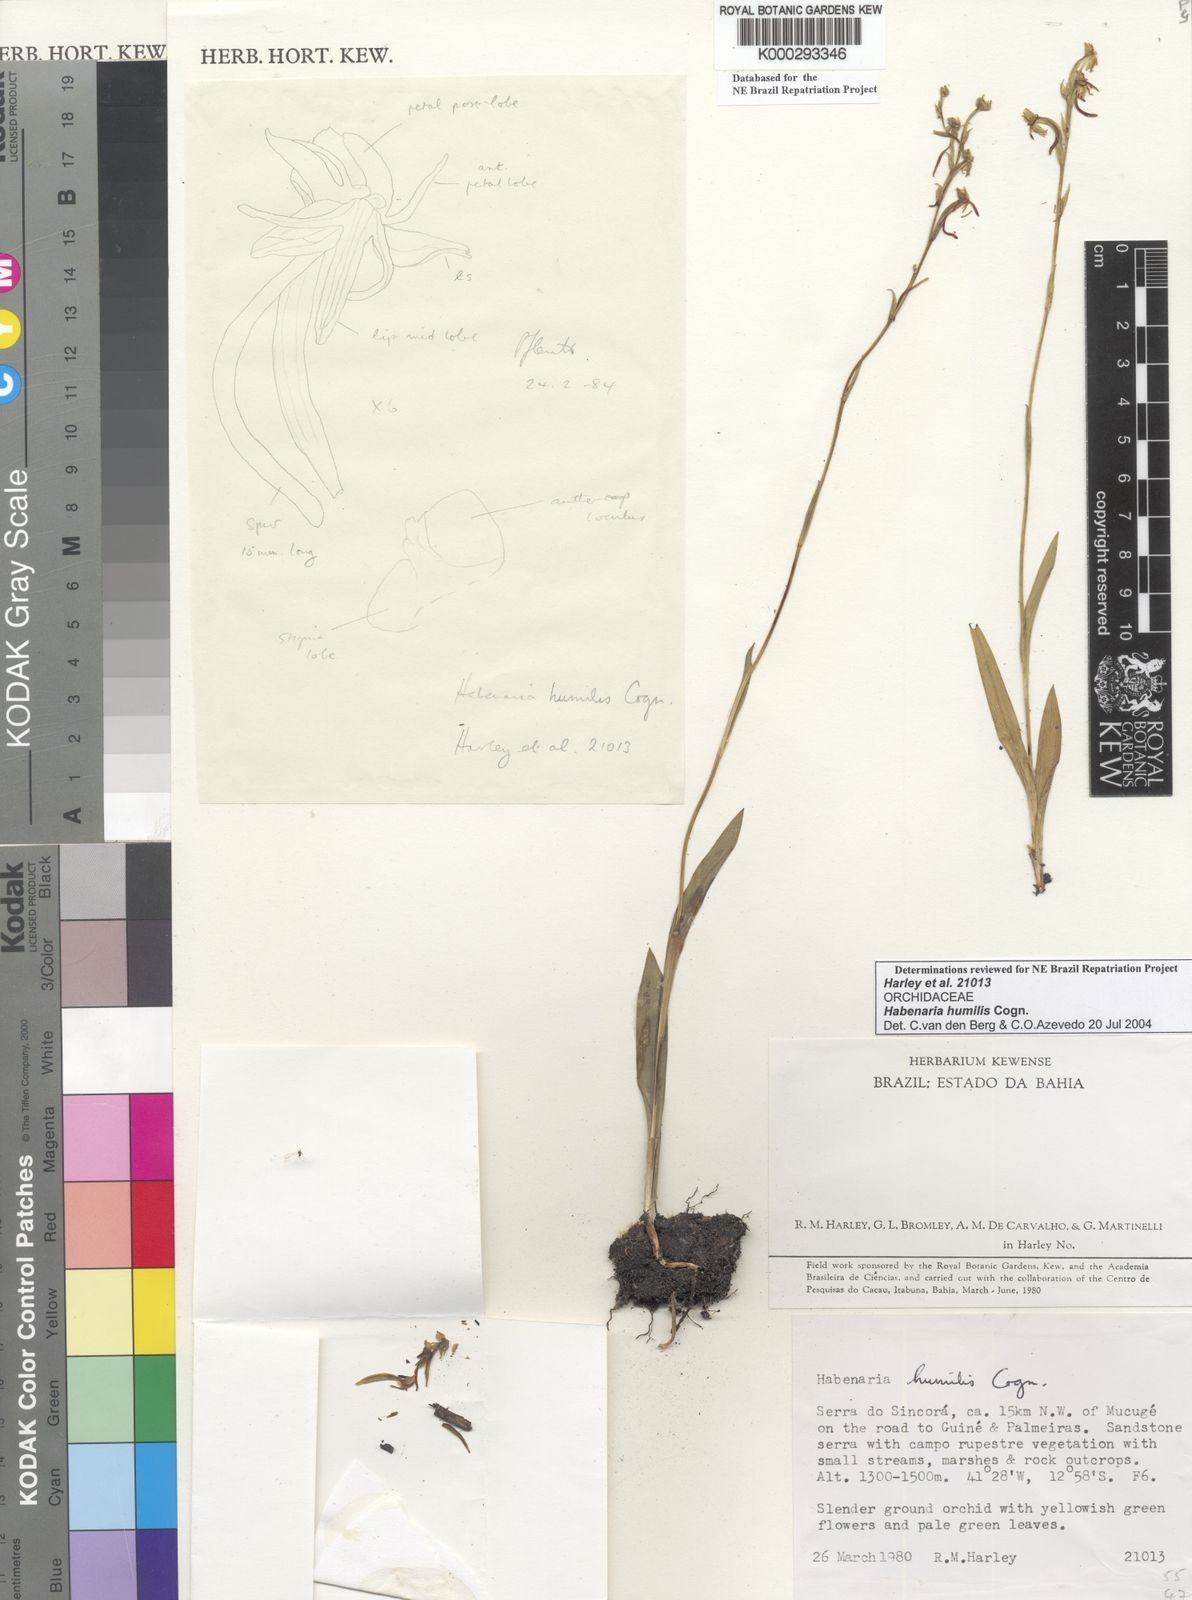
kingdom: Plantae
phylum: Tracheophyta
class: Liliopsida
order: Asparagales
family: Orchidaceae
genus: Habenaria
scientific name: Habenaria campylogyna
